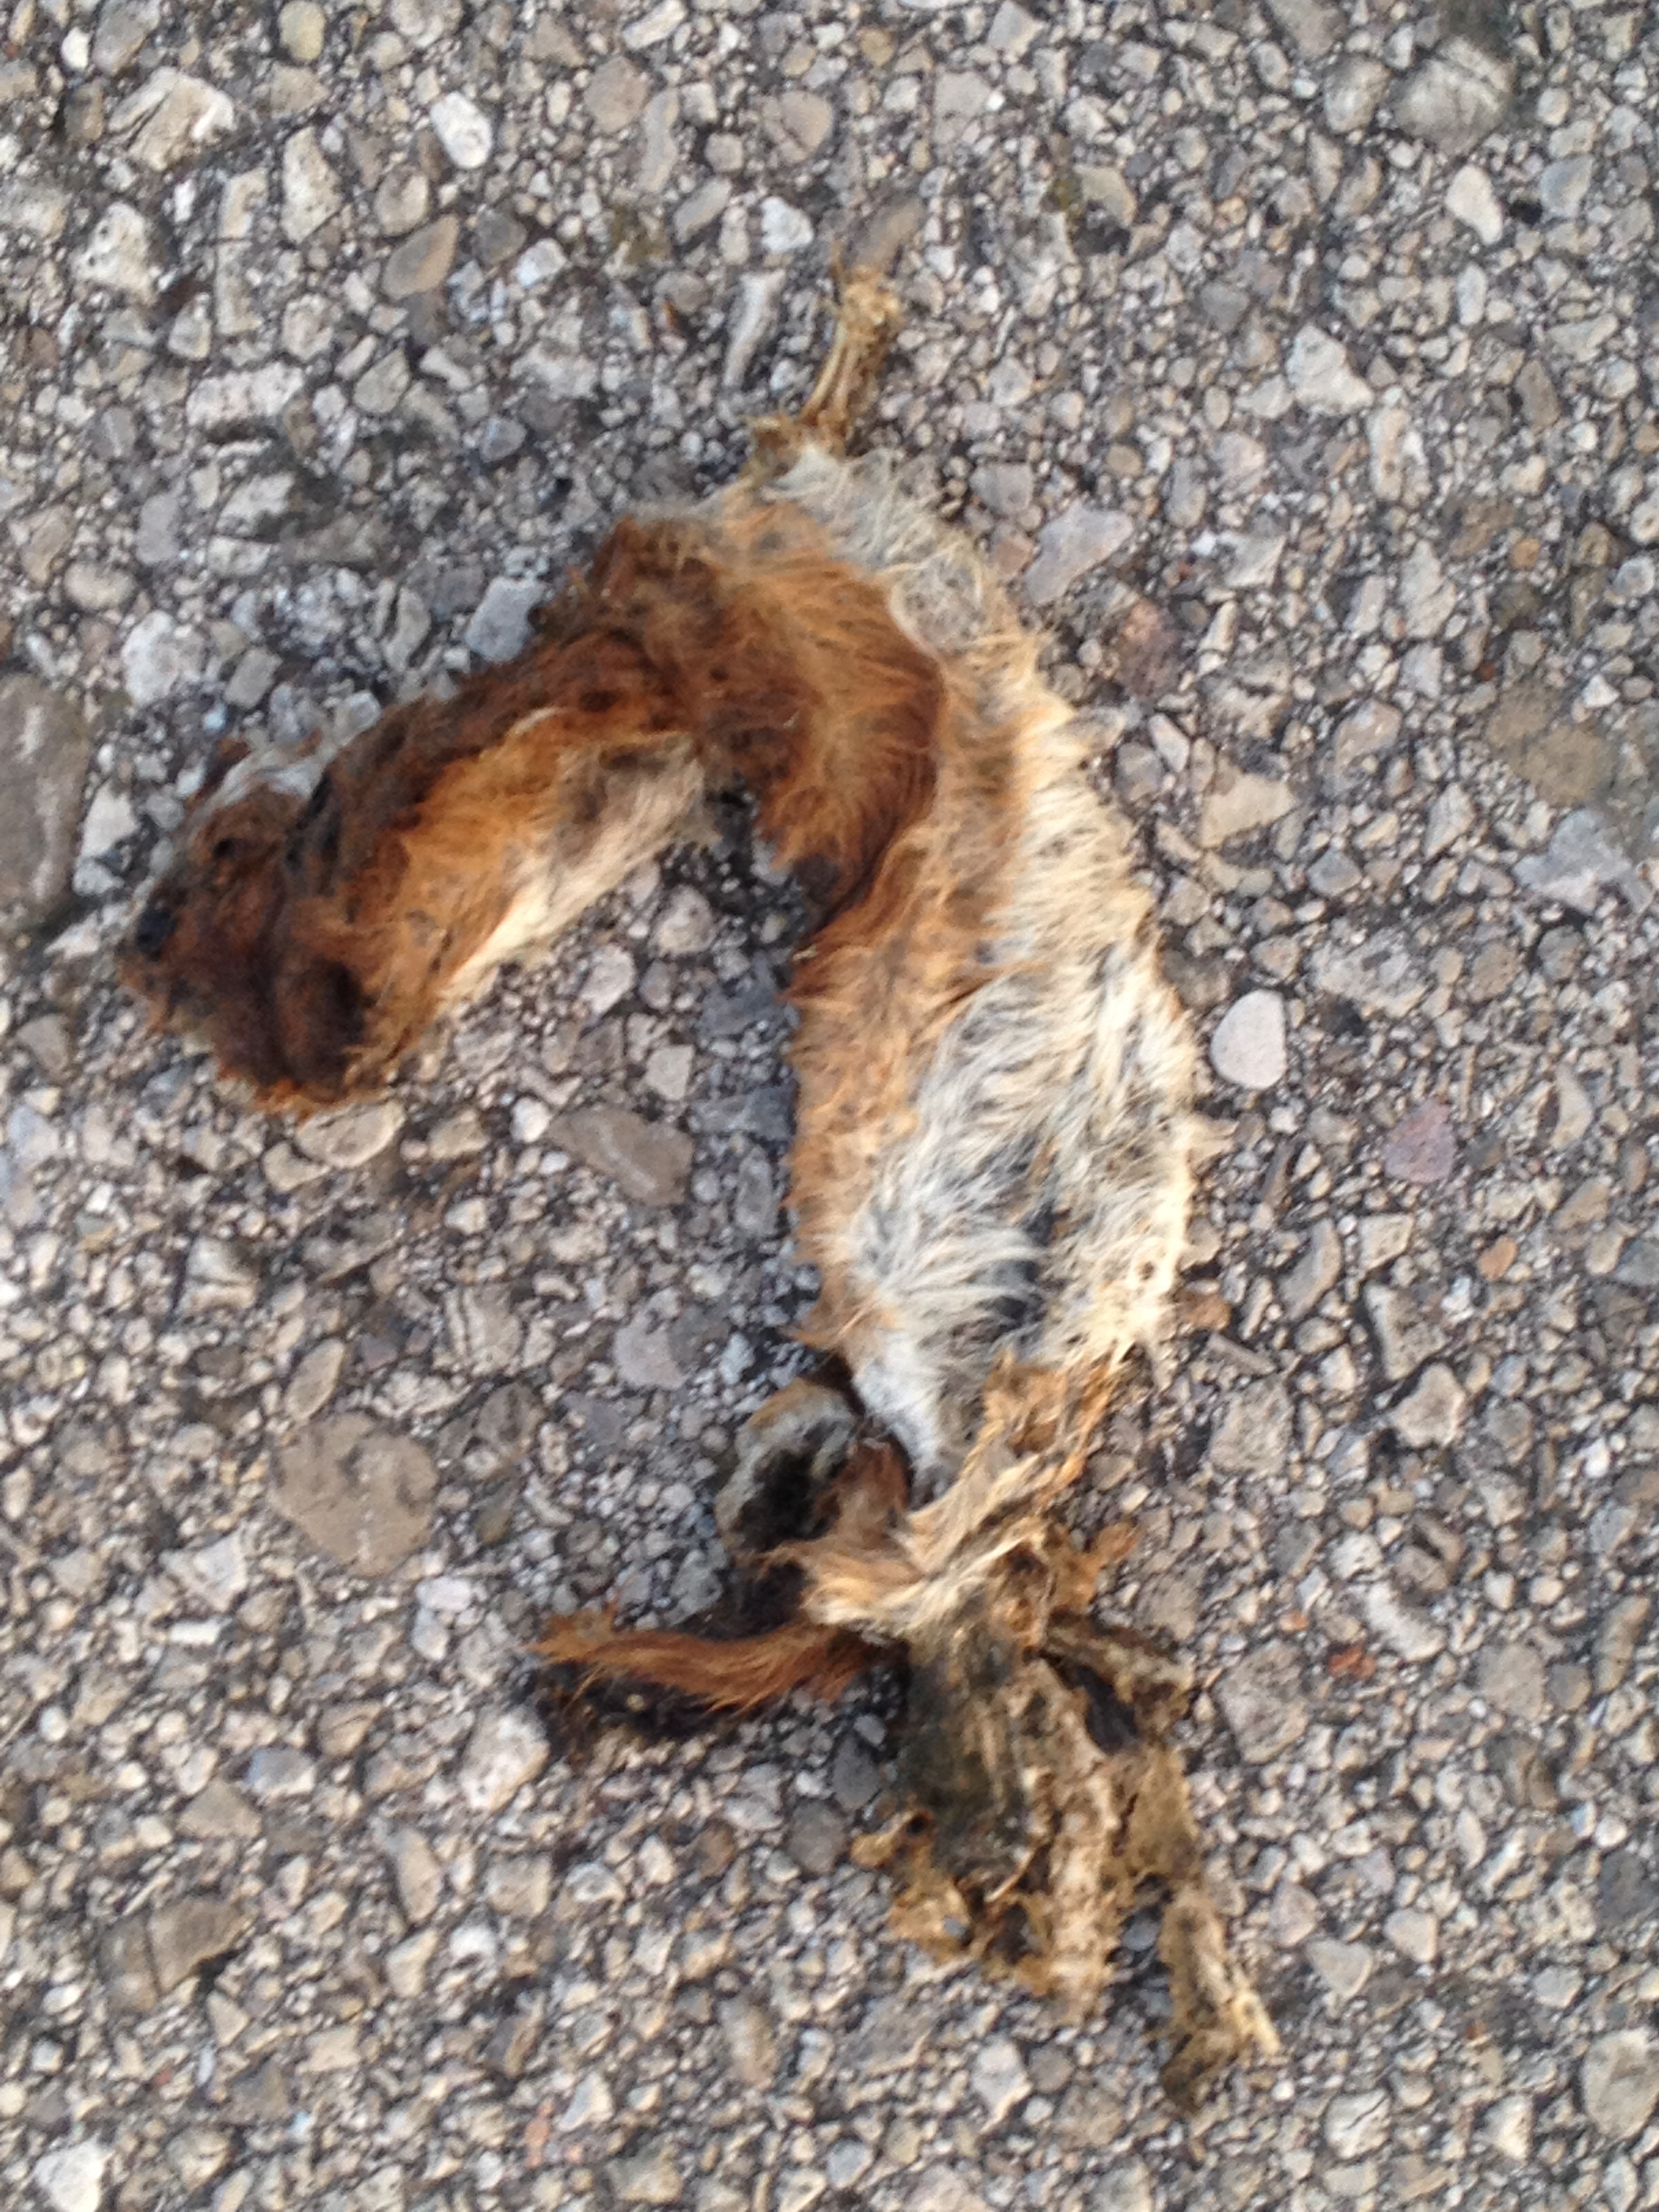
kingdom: Animalia
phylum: Chordata
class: Mammalia
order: Carnivora
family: Mustelidae
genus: Mustela
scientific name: Mustela nivalis
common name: Least weasel
